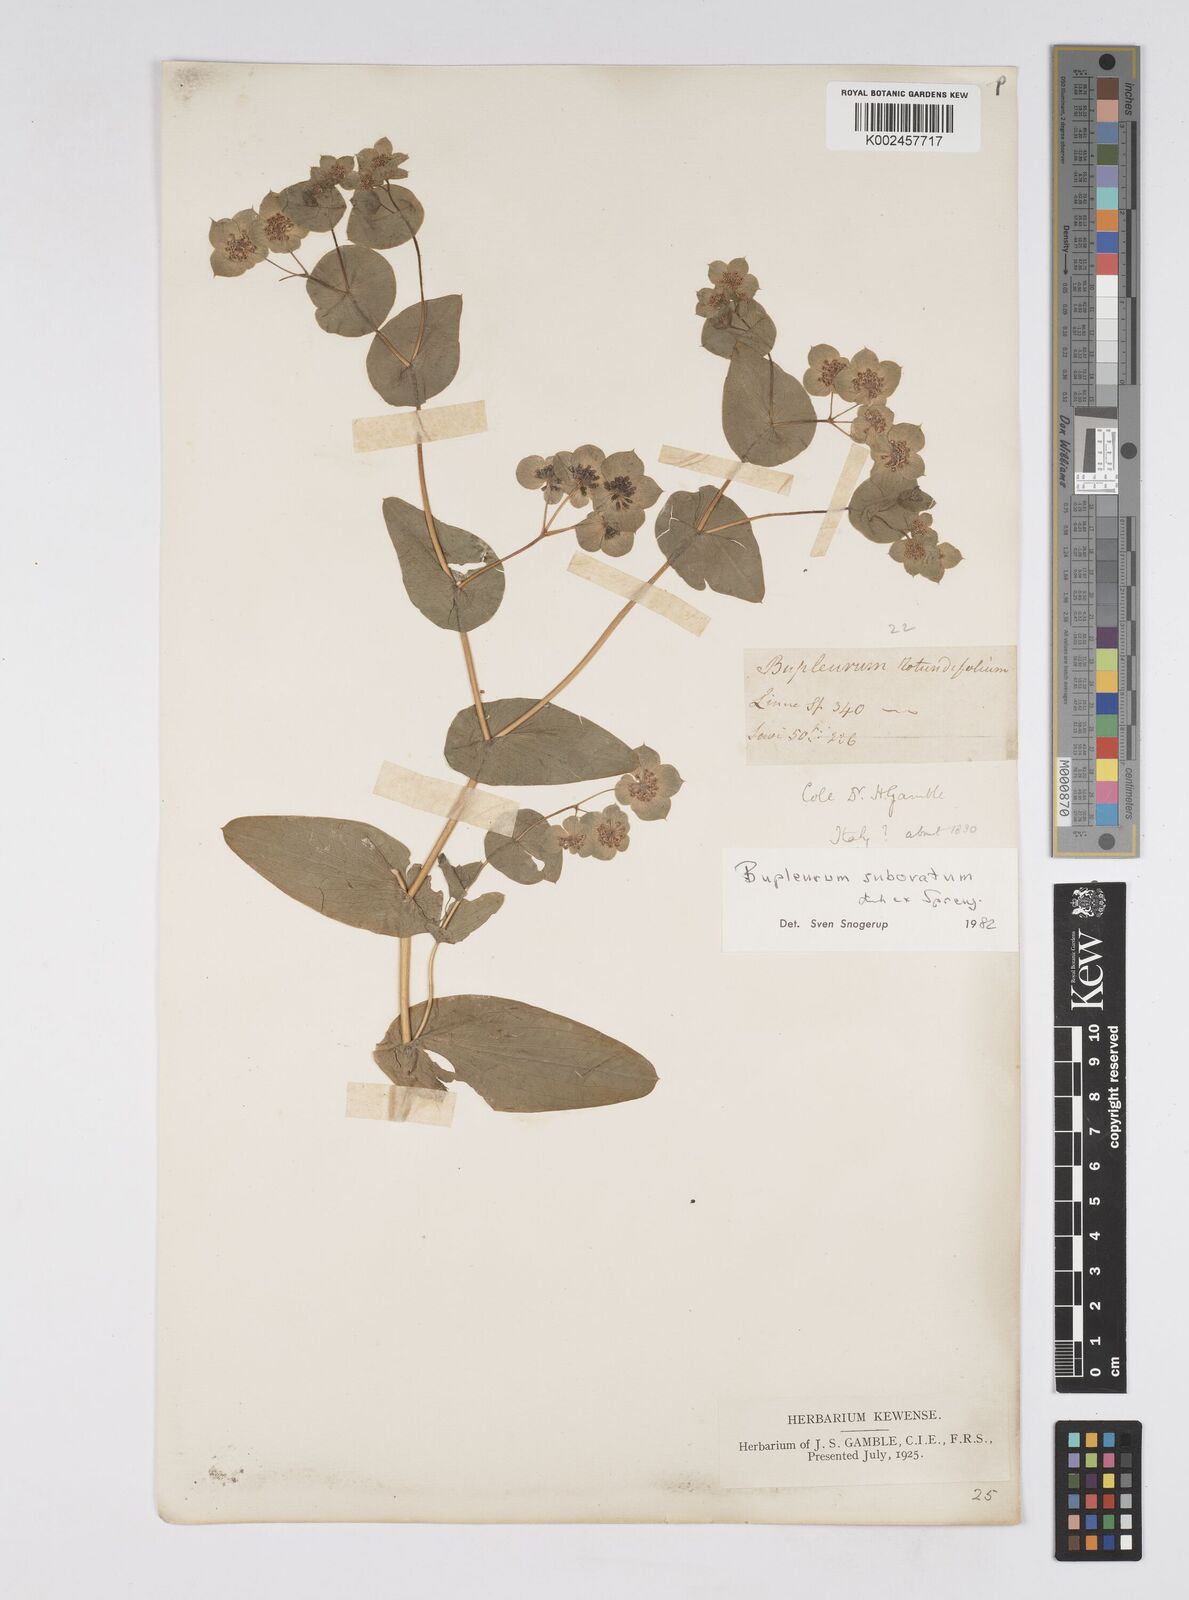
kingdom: Plantae
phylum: Tracheophyta
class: Magnoliopsida
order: Apiales
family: Apiaceae
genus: Bupleurum
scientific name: Bupleurum lancifolium
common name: False thorow-wax
